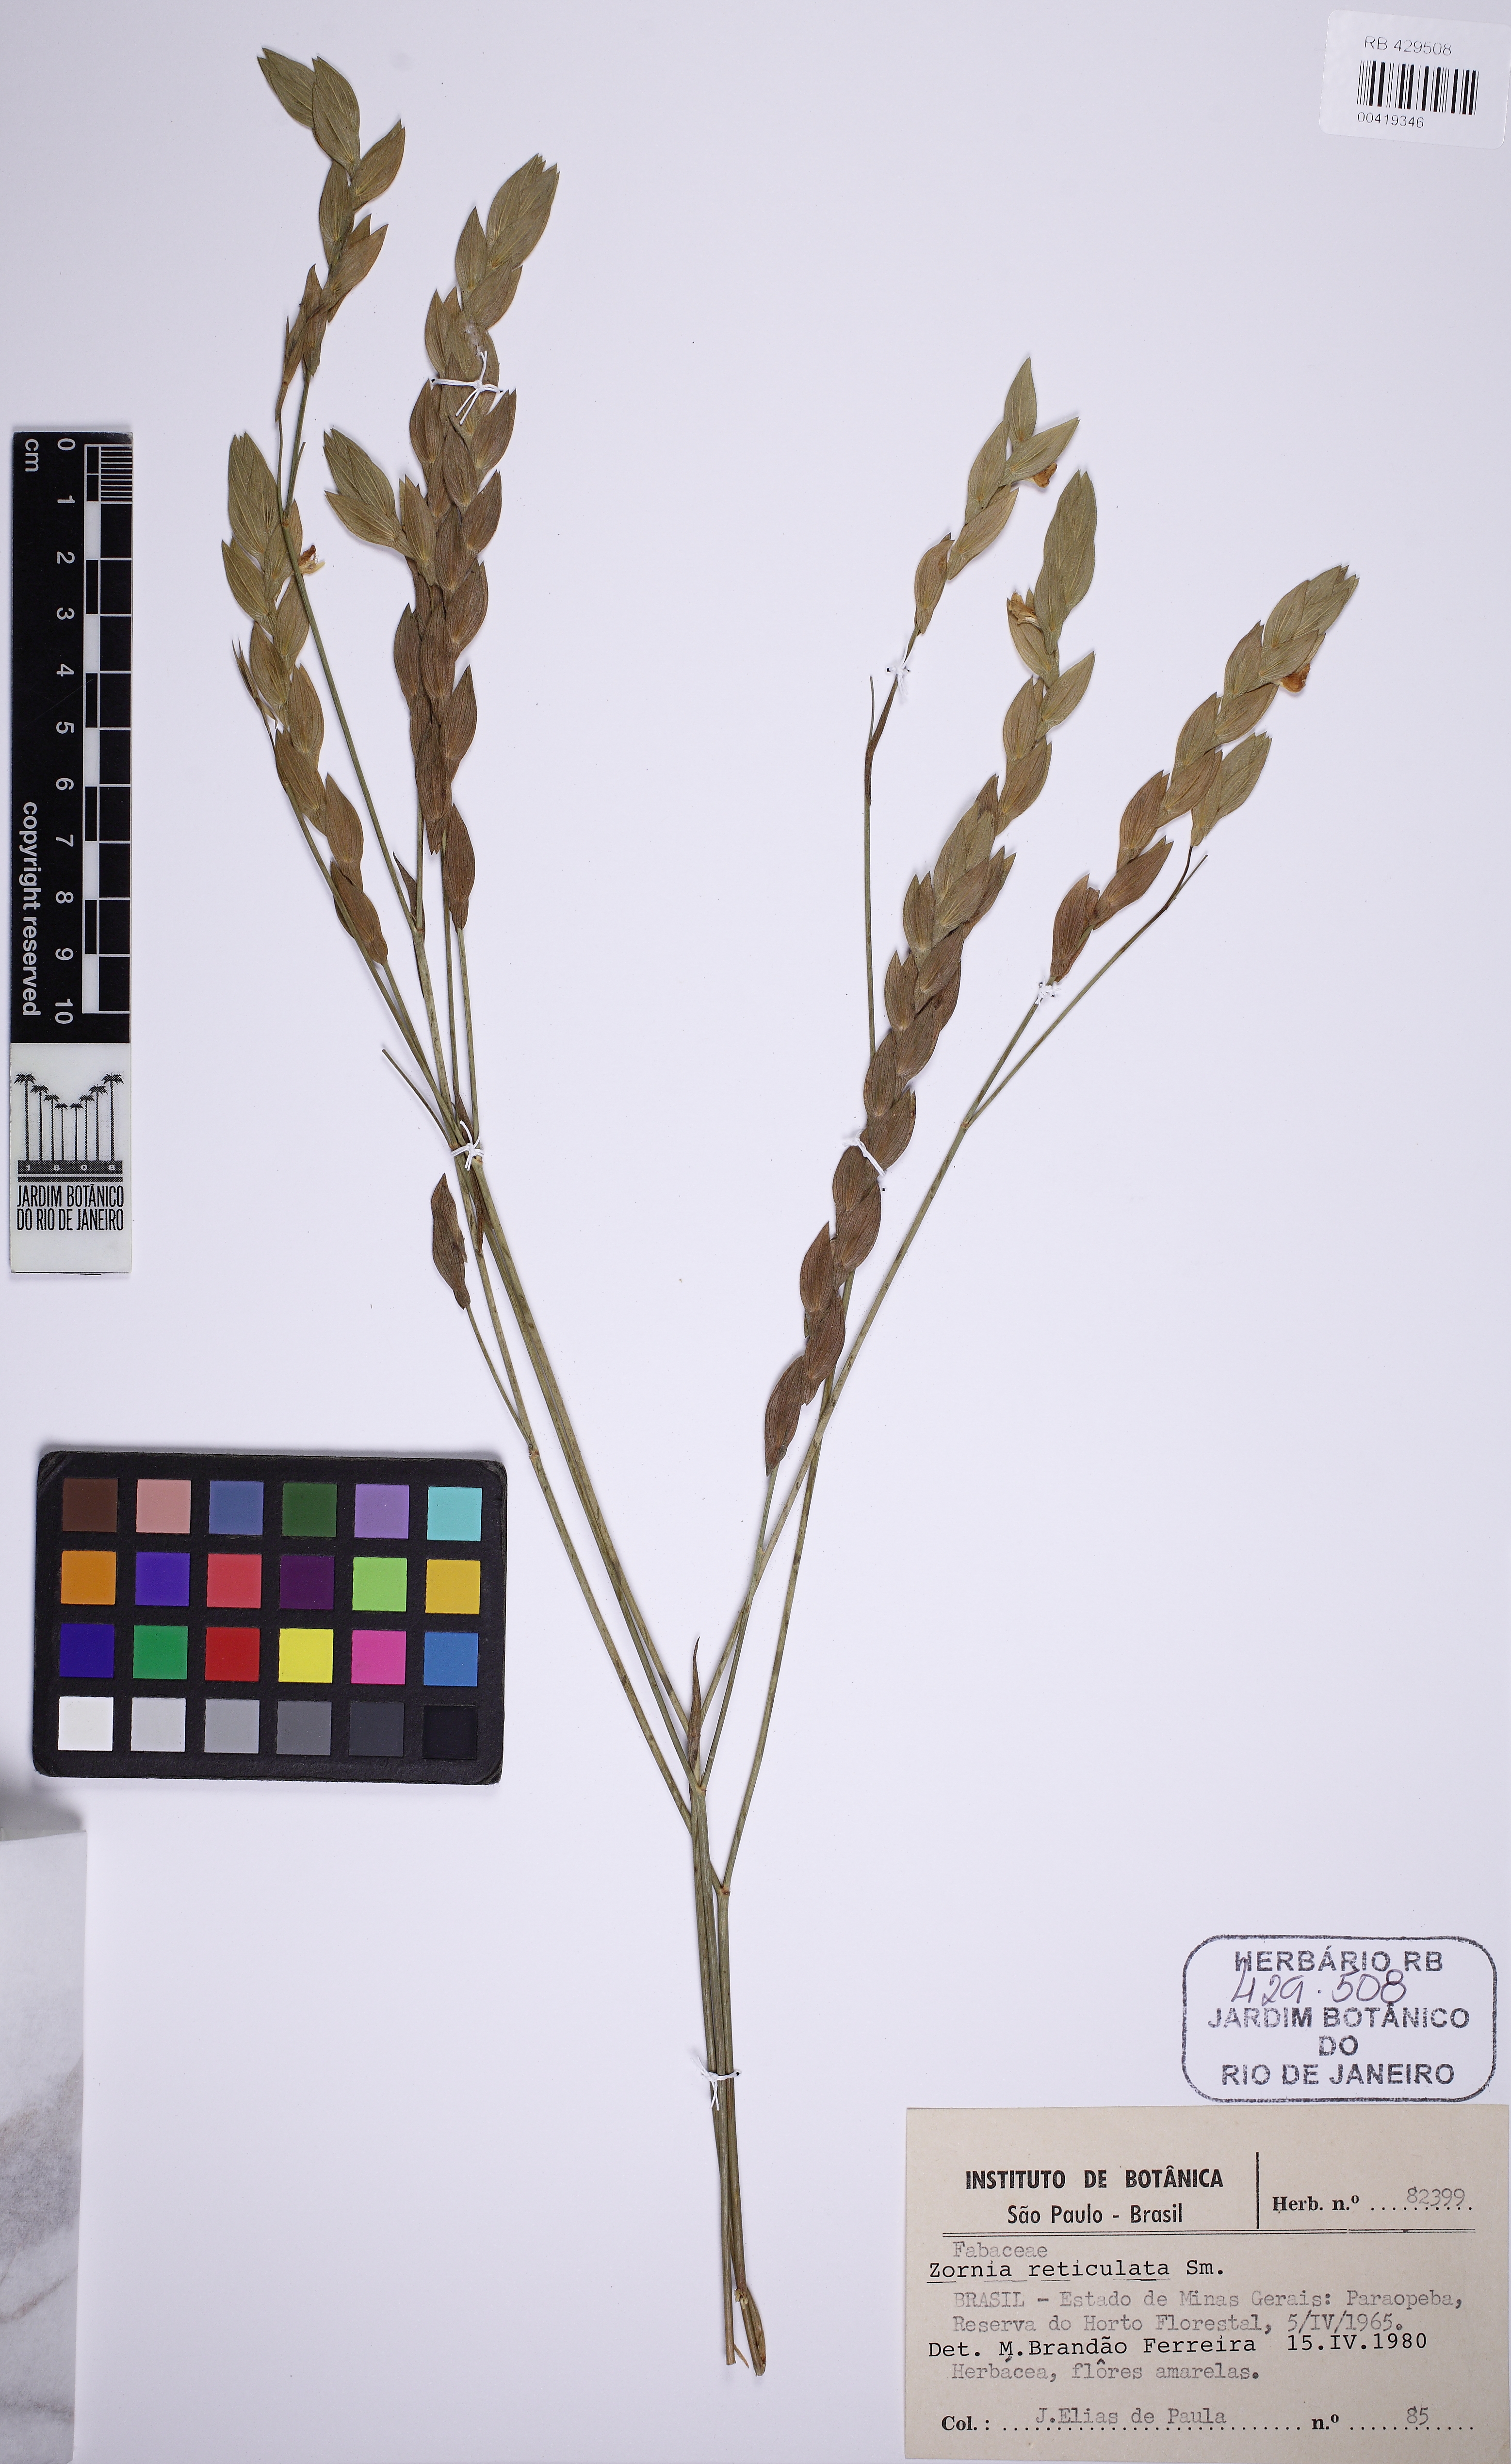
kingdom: Plantae
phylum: Tracheophyta
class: Magnoliopsida
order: Fabales
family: Fabaceae
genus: Zornia
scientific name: Zornia reticulata
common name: Reticulate viperina
